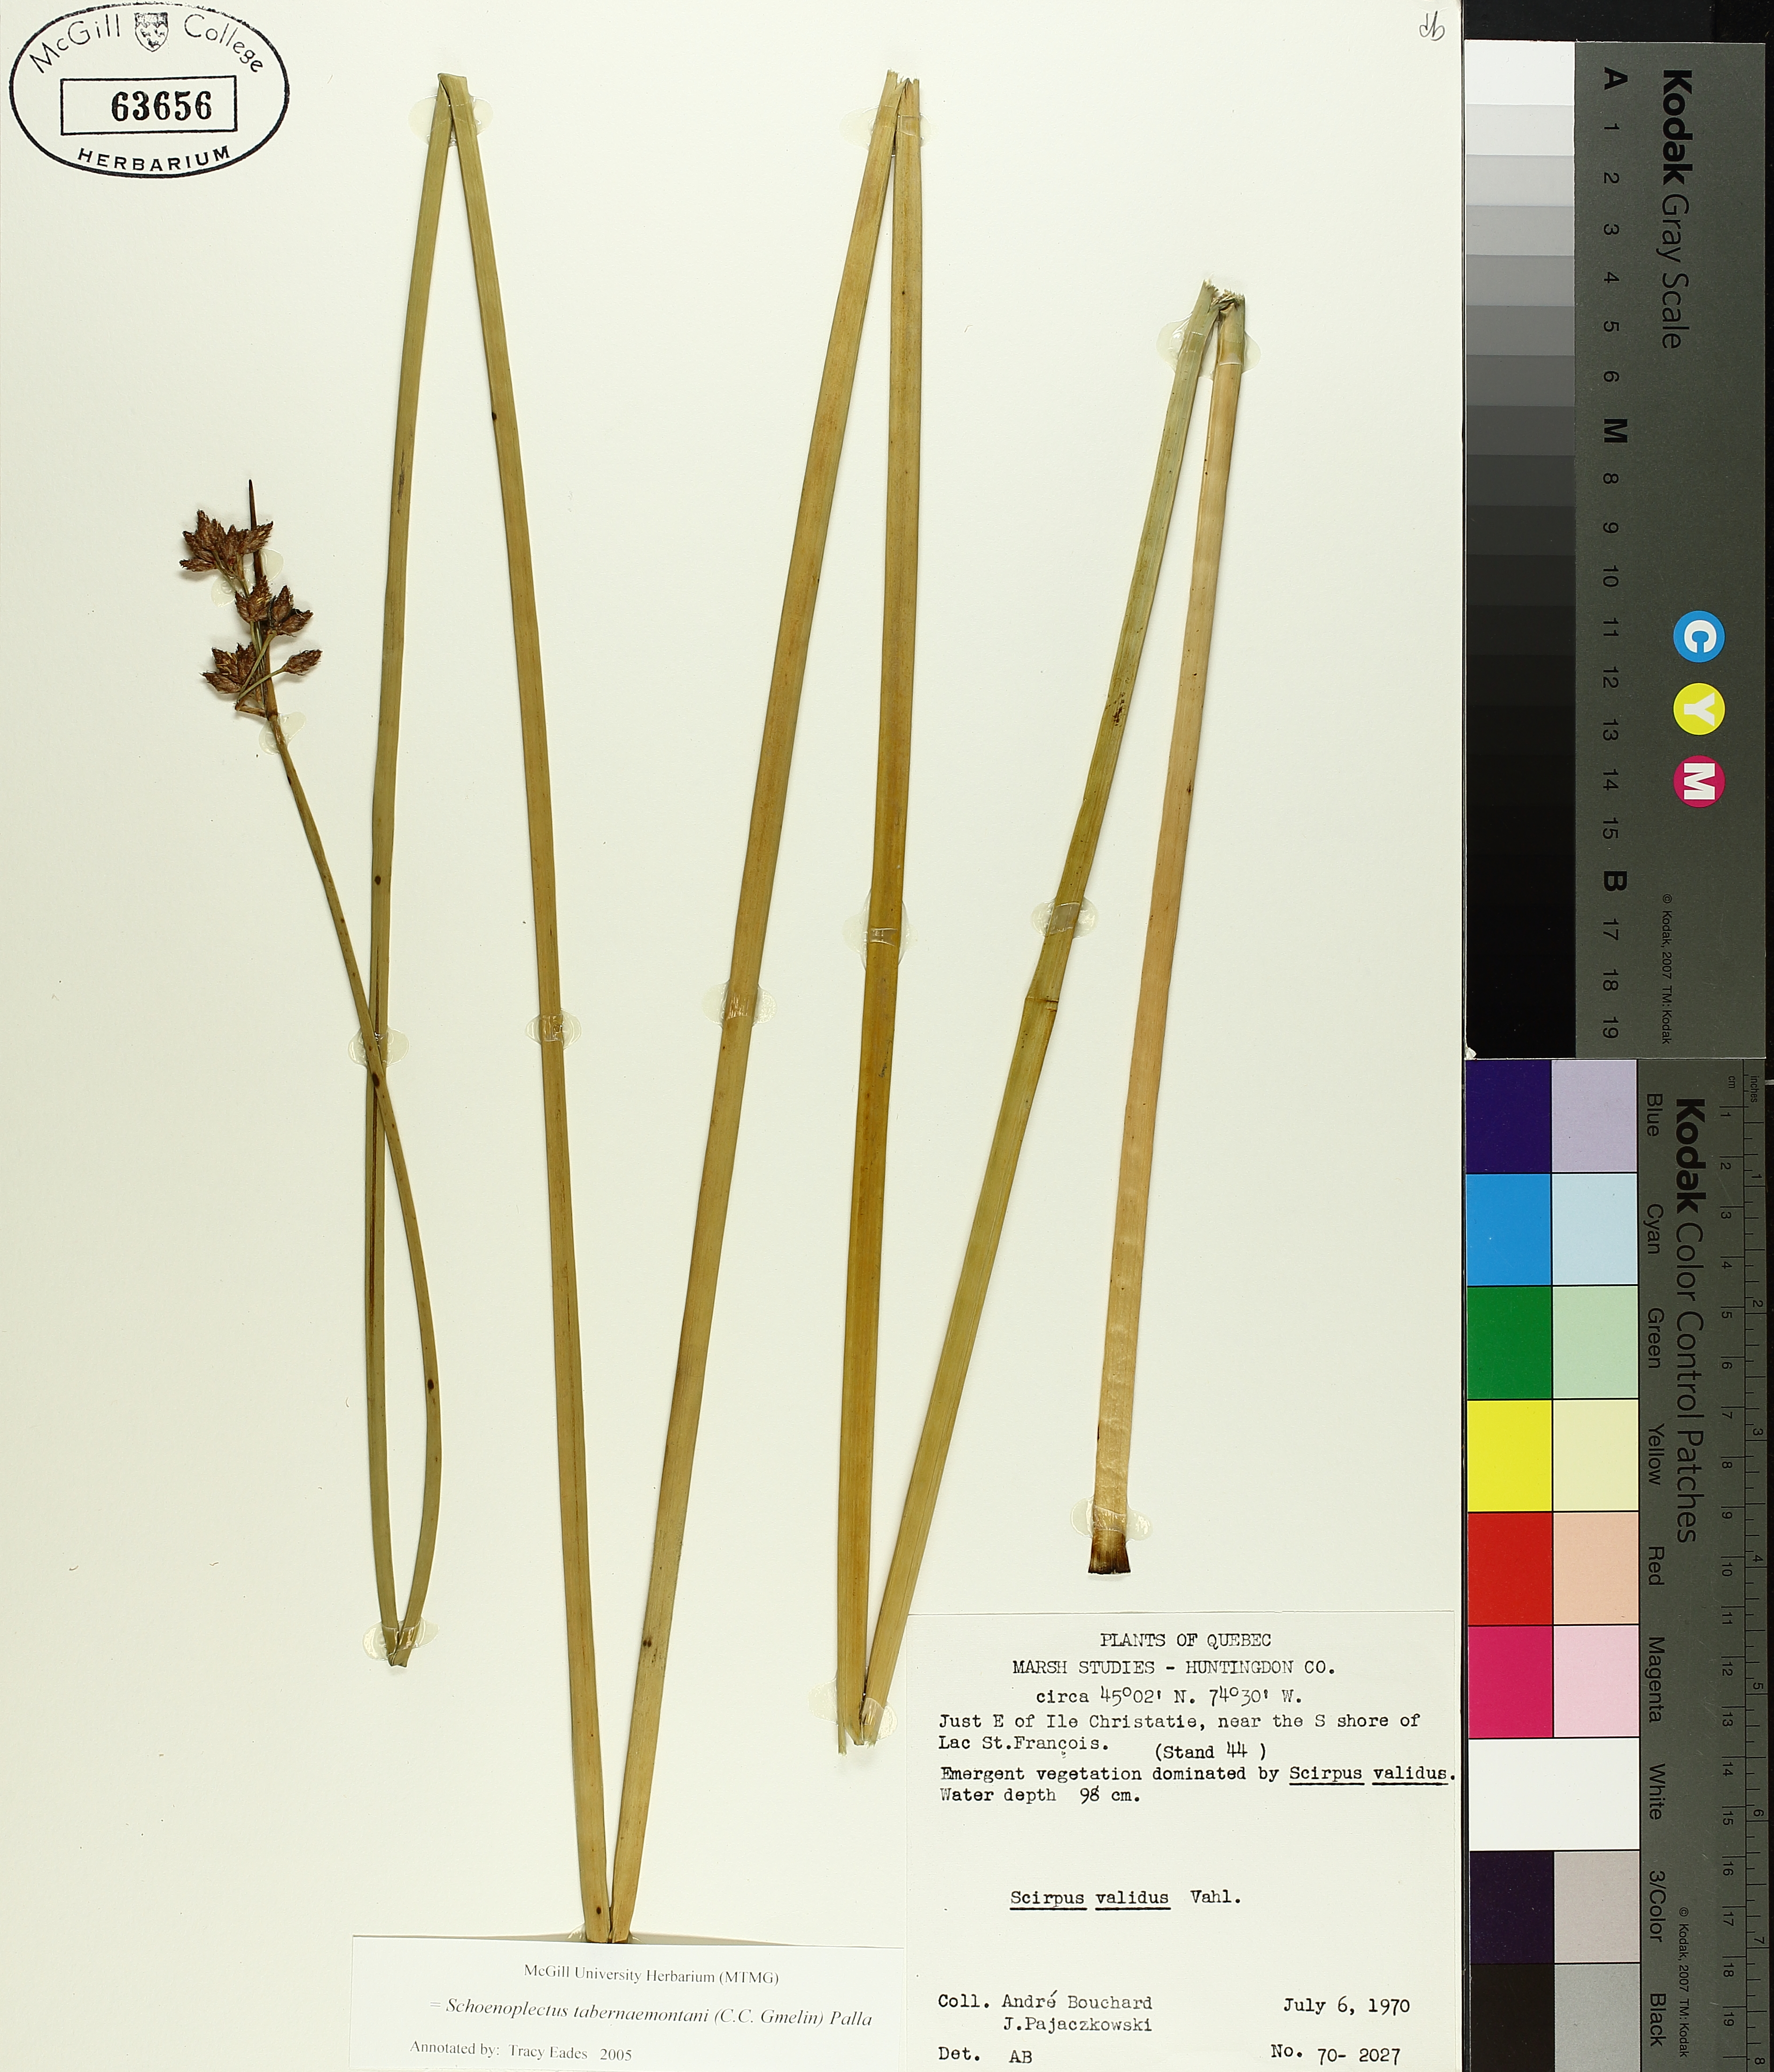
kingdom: Plantae
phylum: Tracheophyta
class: Liliopsida
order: Poales
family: Cyperaceae
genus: Schoenoplectus
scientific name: Schoenoplectus tabernaemontani
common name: Grey club-rush
